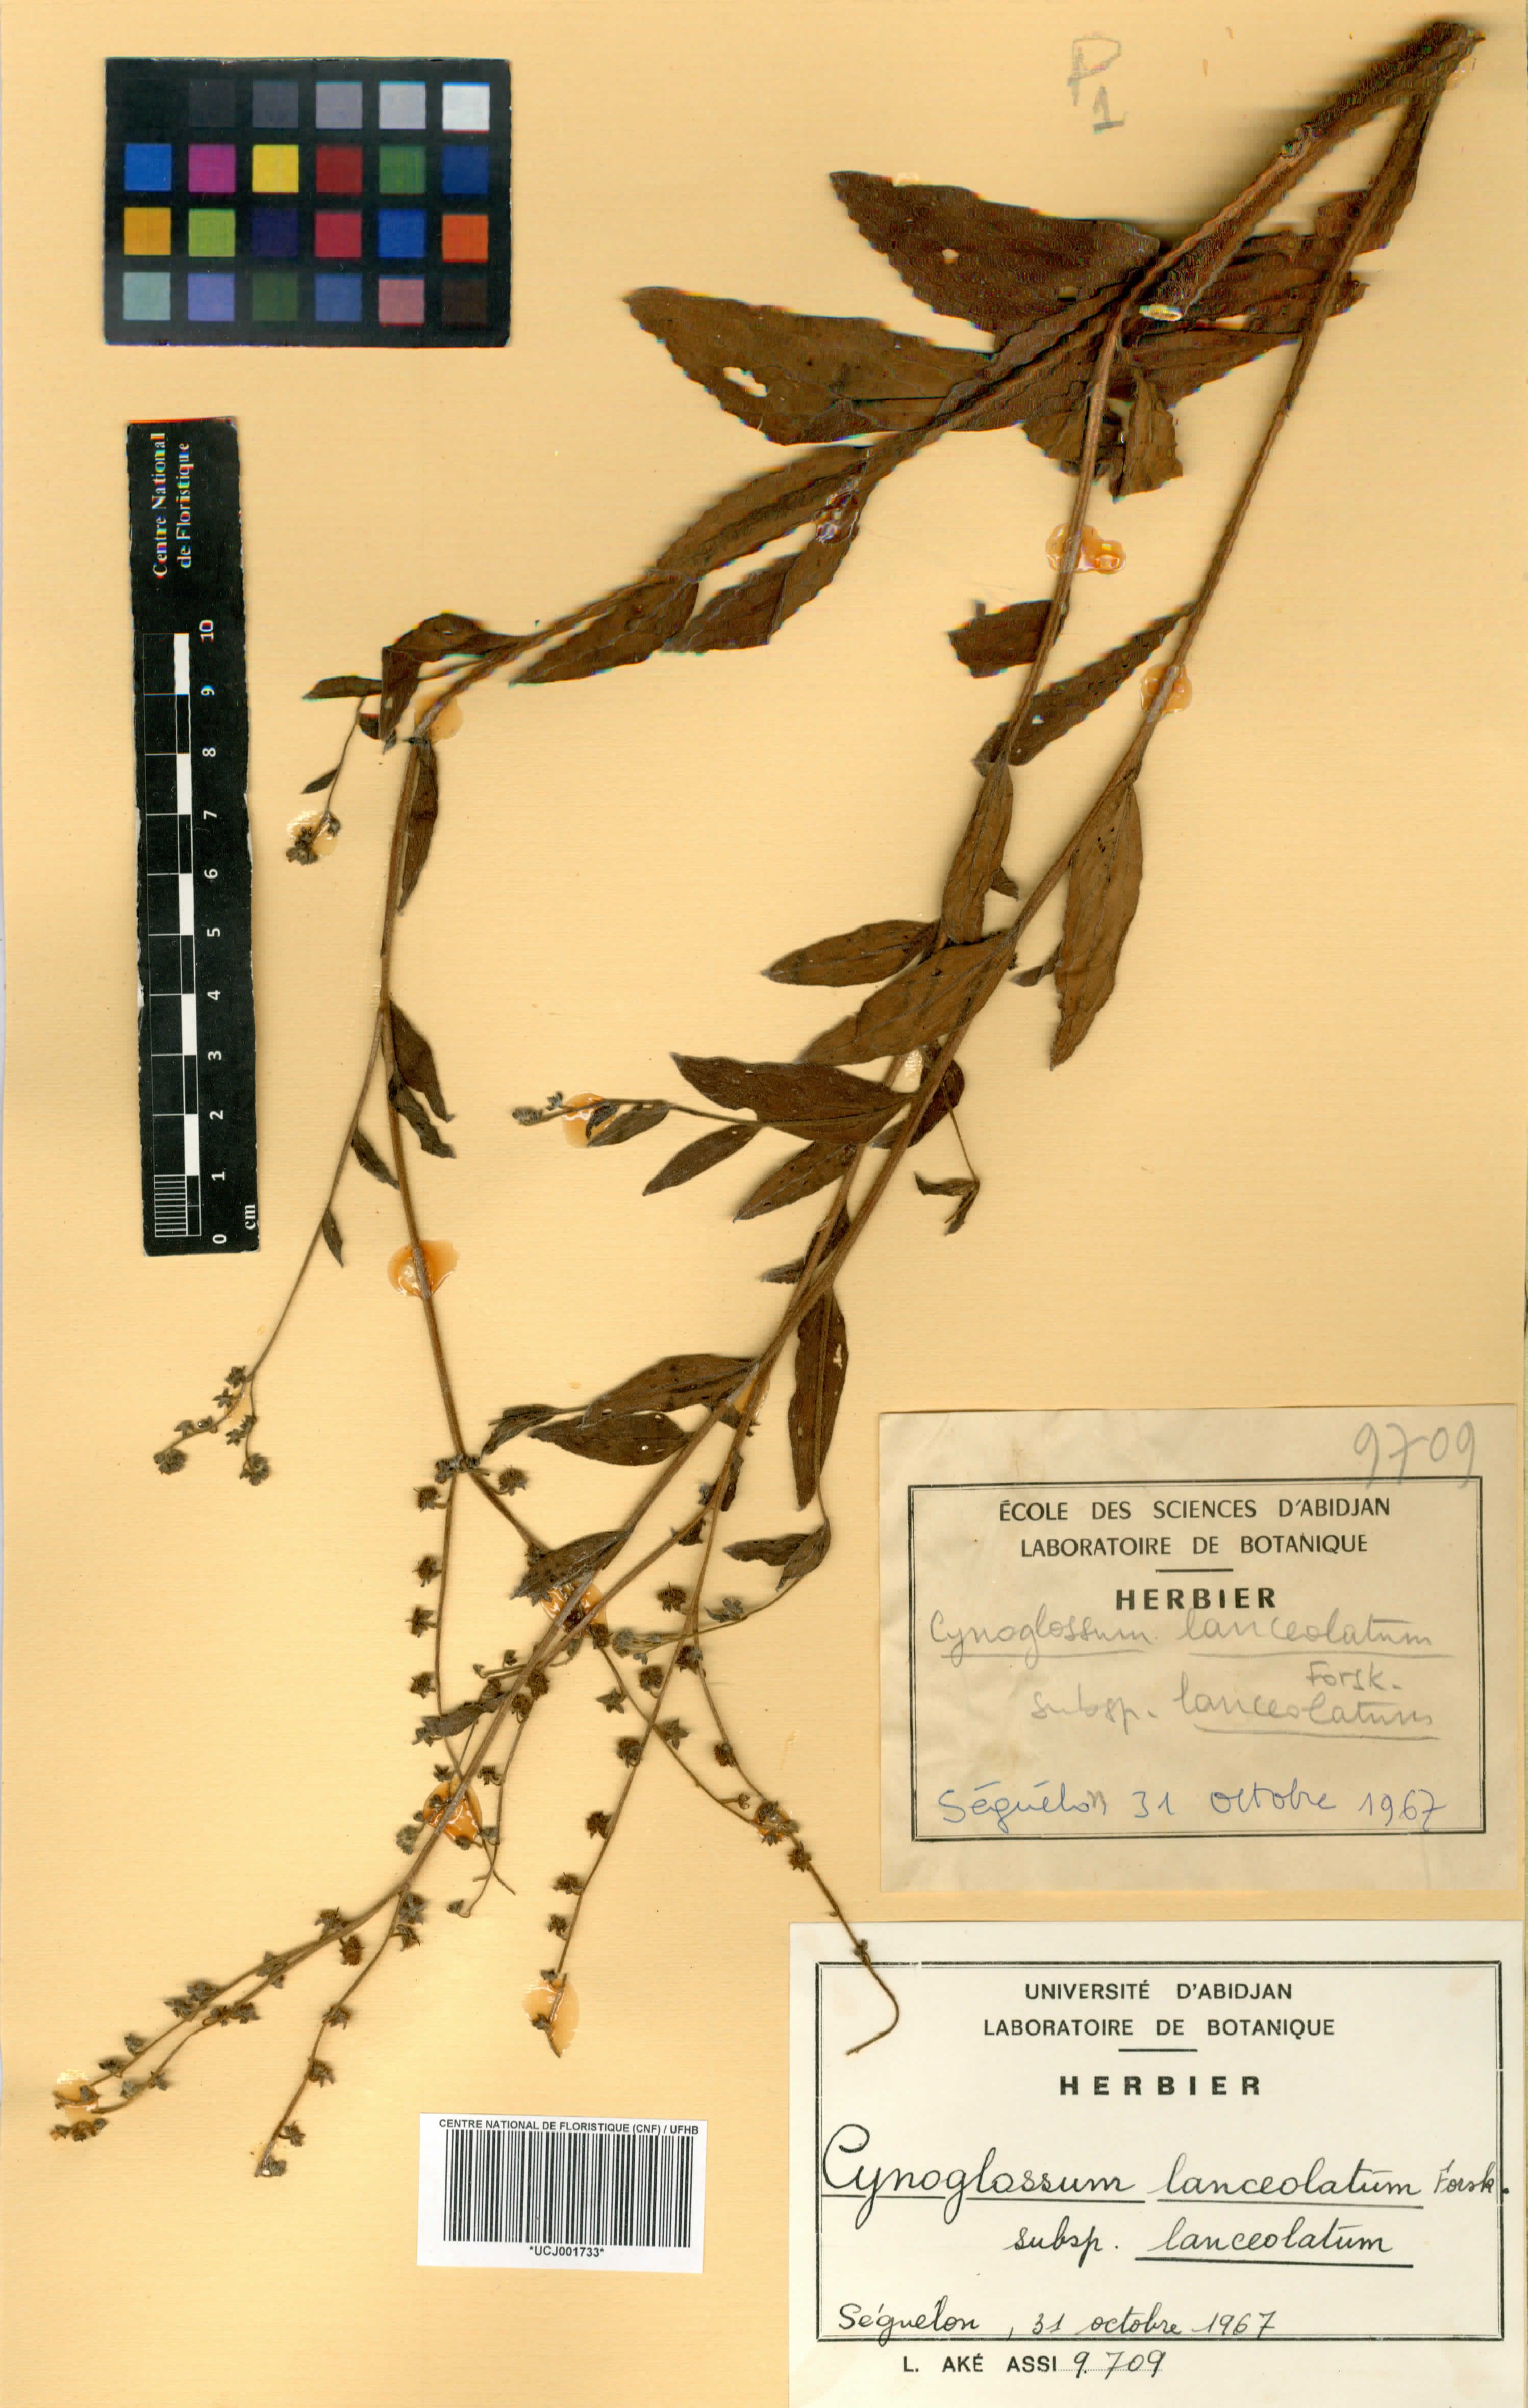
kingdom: Plantae
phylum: Tracheophyta
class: Magnoliopsida
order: Boraginales
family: Boraginaceae
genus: Paracynoglossum
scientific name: Paracynoglossum lanceolatum
